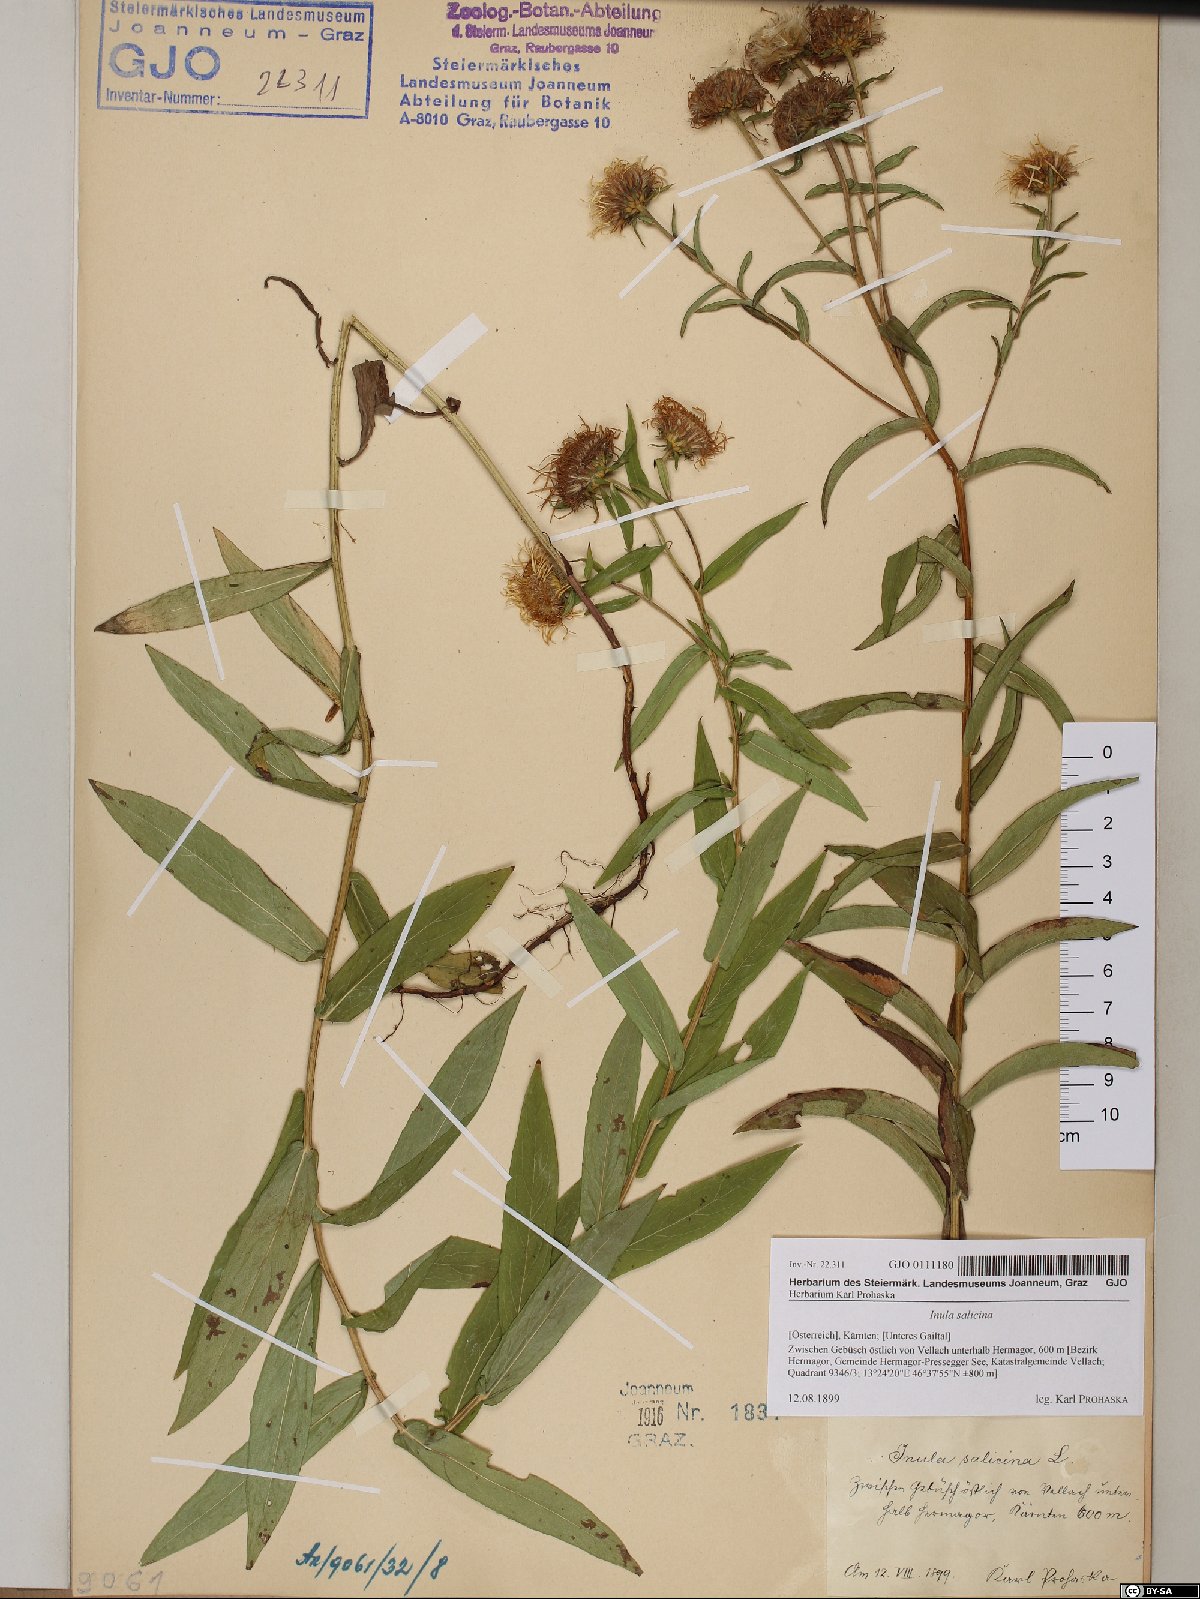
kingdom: Plantae
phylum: Tracheophyta
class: Magnoliopsida
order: Asterales
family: Asteraceae
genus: Pentanema
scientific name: Pentanema salicinum
